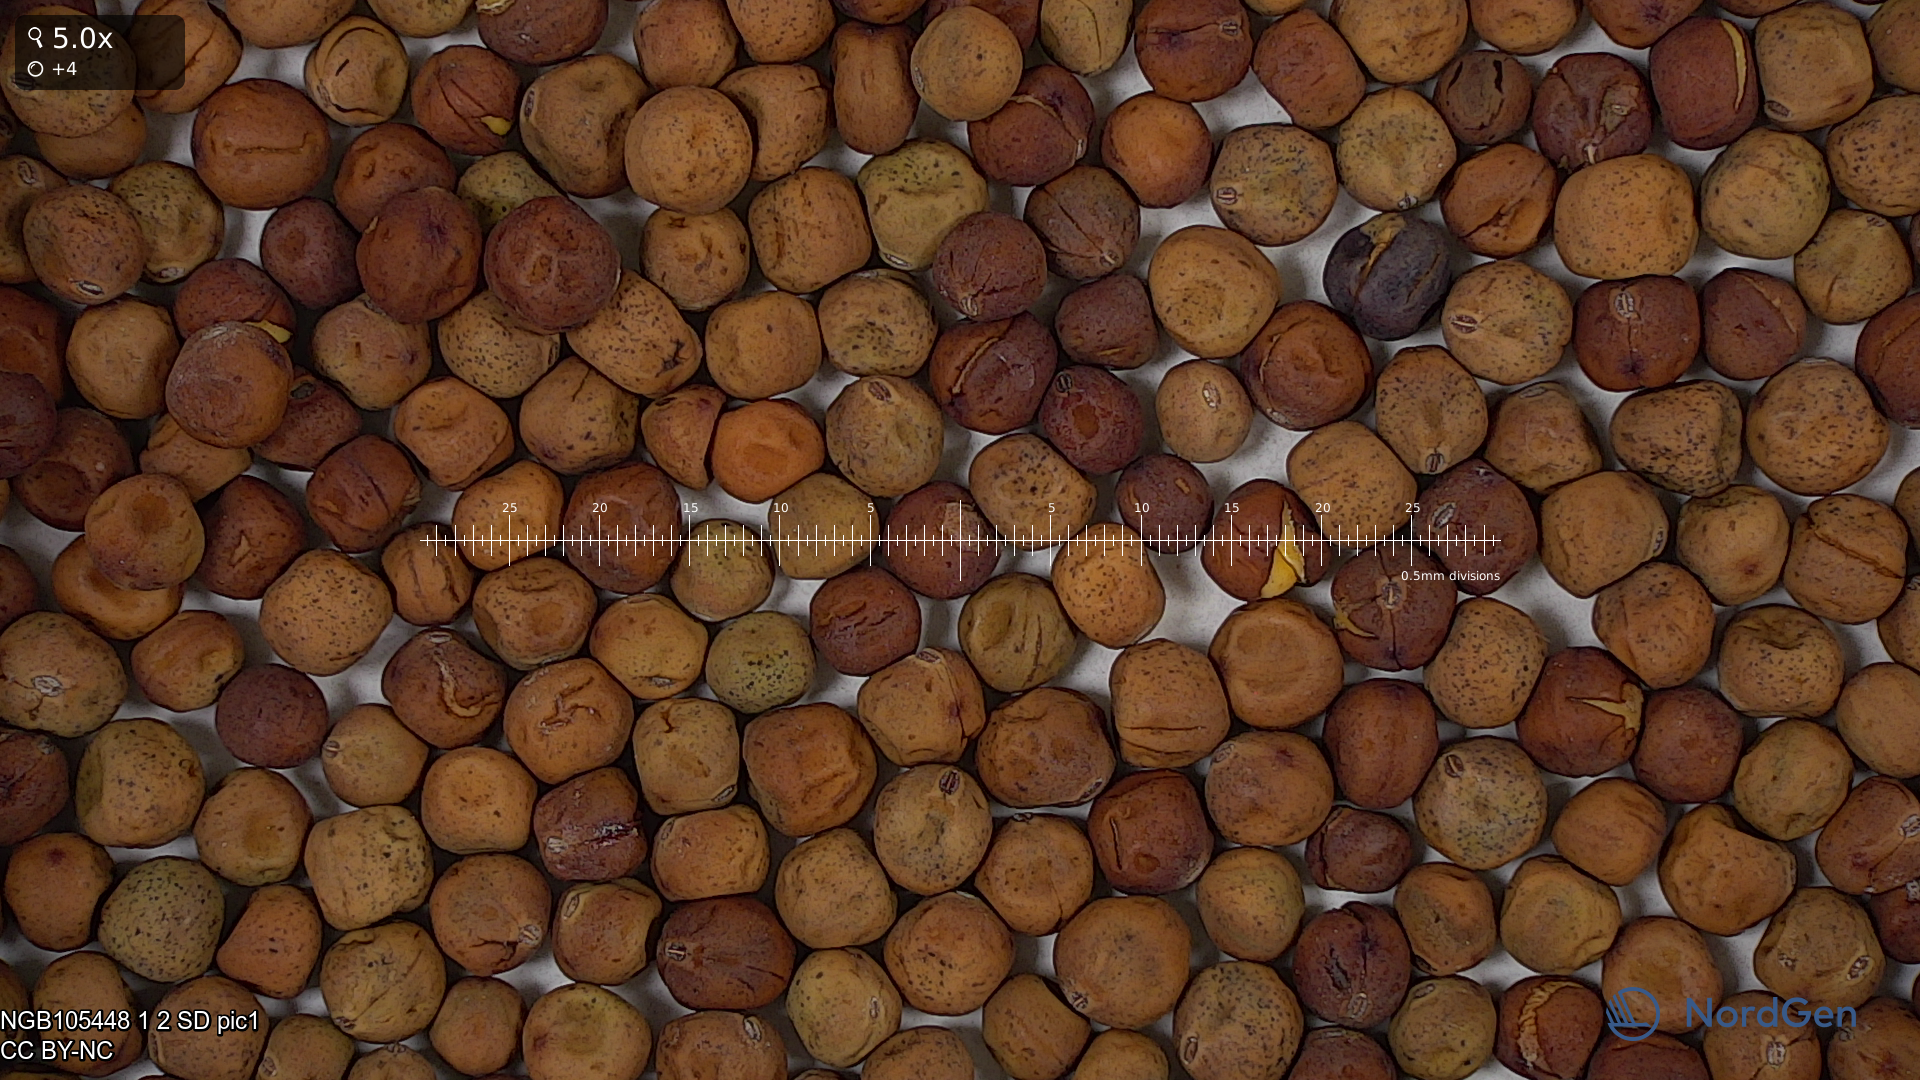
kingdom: Plantae
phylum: Tracheophyta
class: Magnoliopsida
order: Fabales
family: Fabaceae
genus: Lathyrus
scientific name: Lathyrus oleraceus
